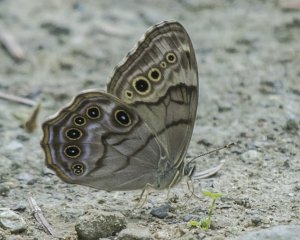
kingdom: Animalia
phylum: Arthropoda
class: Insecta
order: Lepidoptera
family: Nymphalidae
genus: Lethe
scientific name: Lethe anthedon
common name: Northern Pearly-Eye
